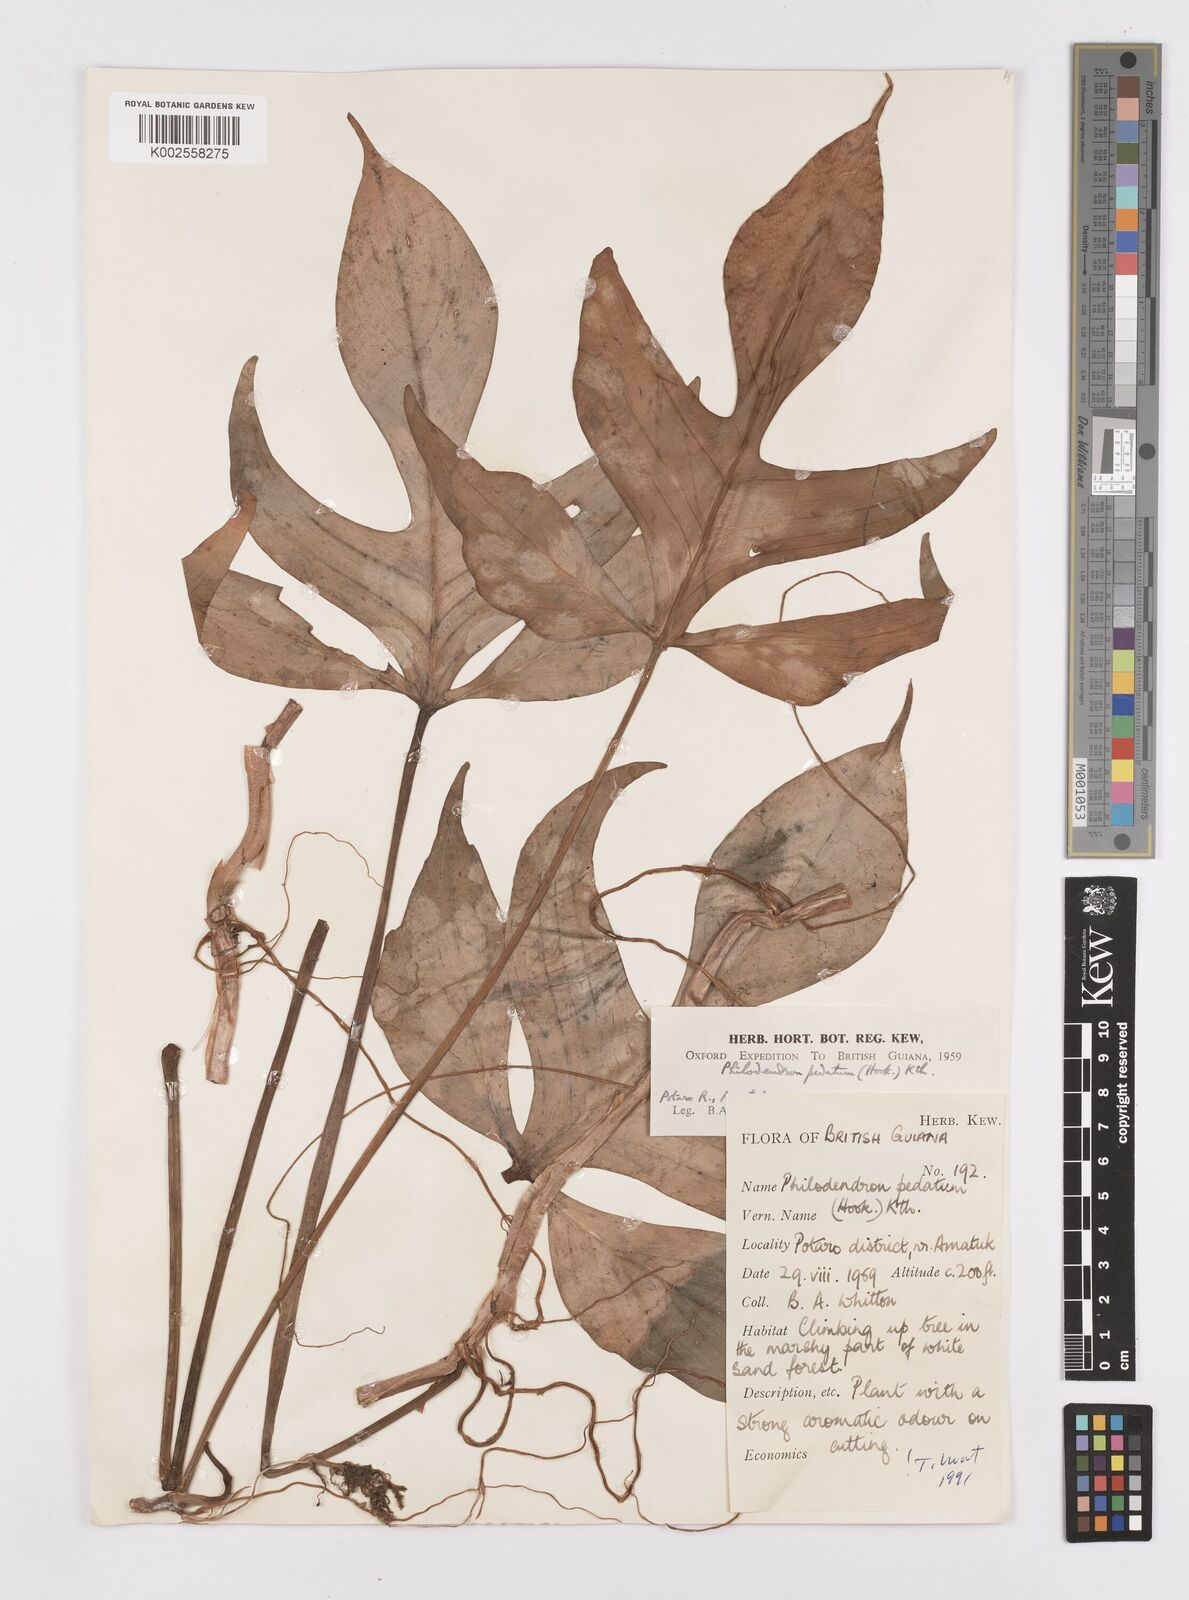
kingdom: Plantae
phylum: Tracheophyta
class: Liliopsida
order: Alismatales
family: Araceae
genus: Philodendron
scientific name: Philodendron pedatum
